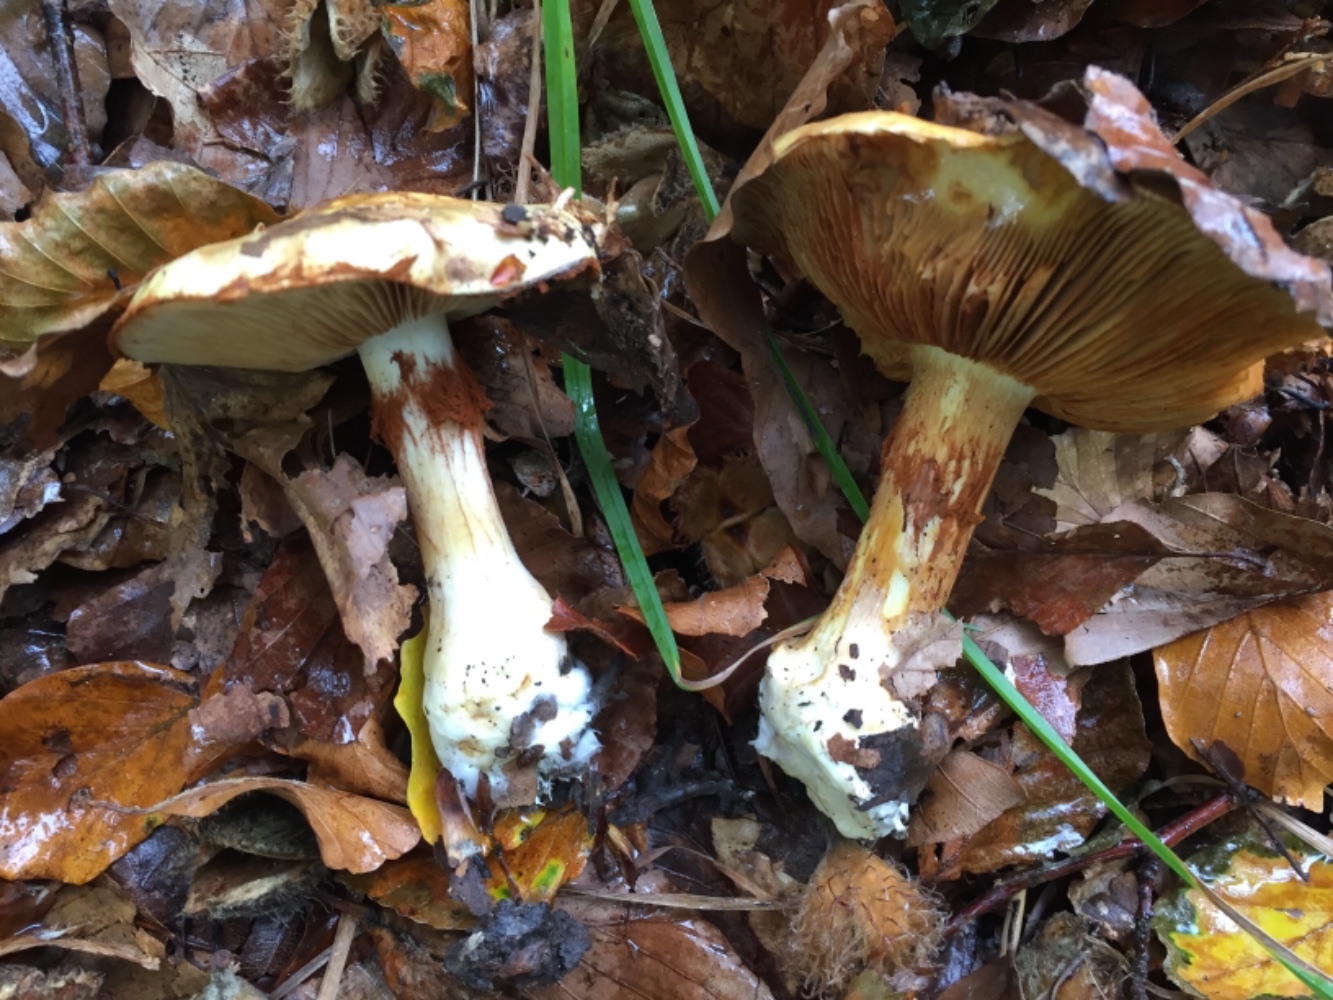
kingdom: Fungi
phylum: Basidiomycota
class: Agaricomycetes
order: Agaricales
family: Cortinariaceae
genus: Phlegmacium
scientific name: Phlegmacium caesiocortinatum
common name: rundsporet slørhat
